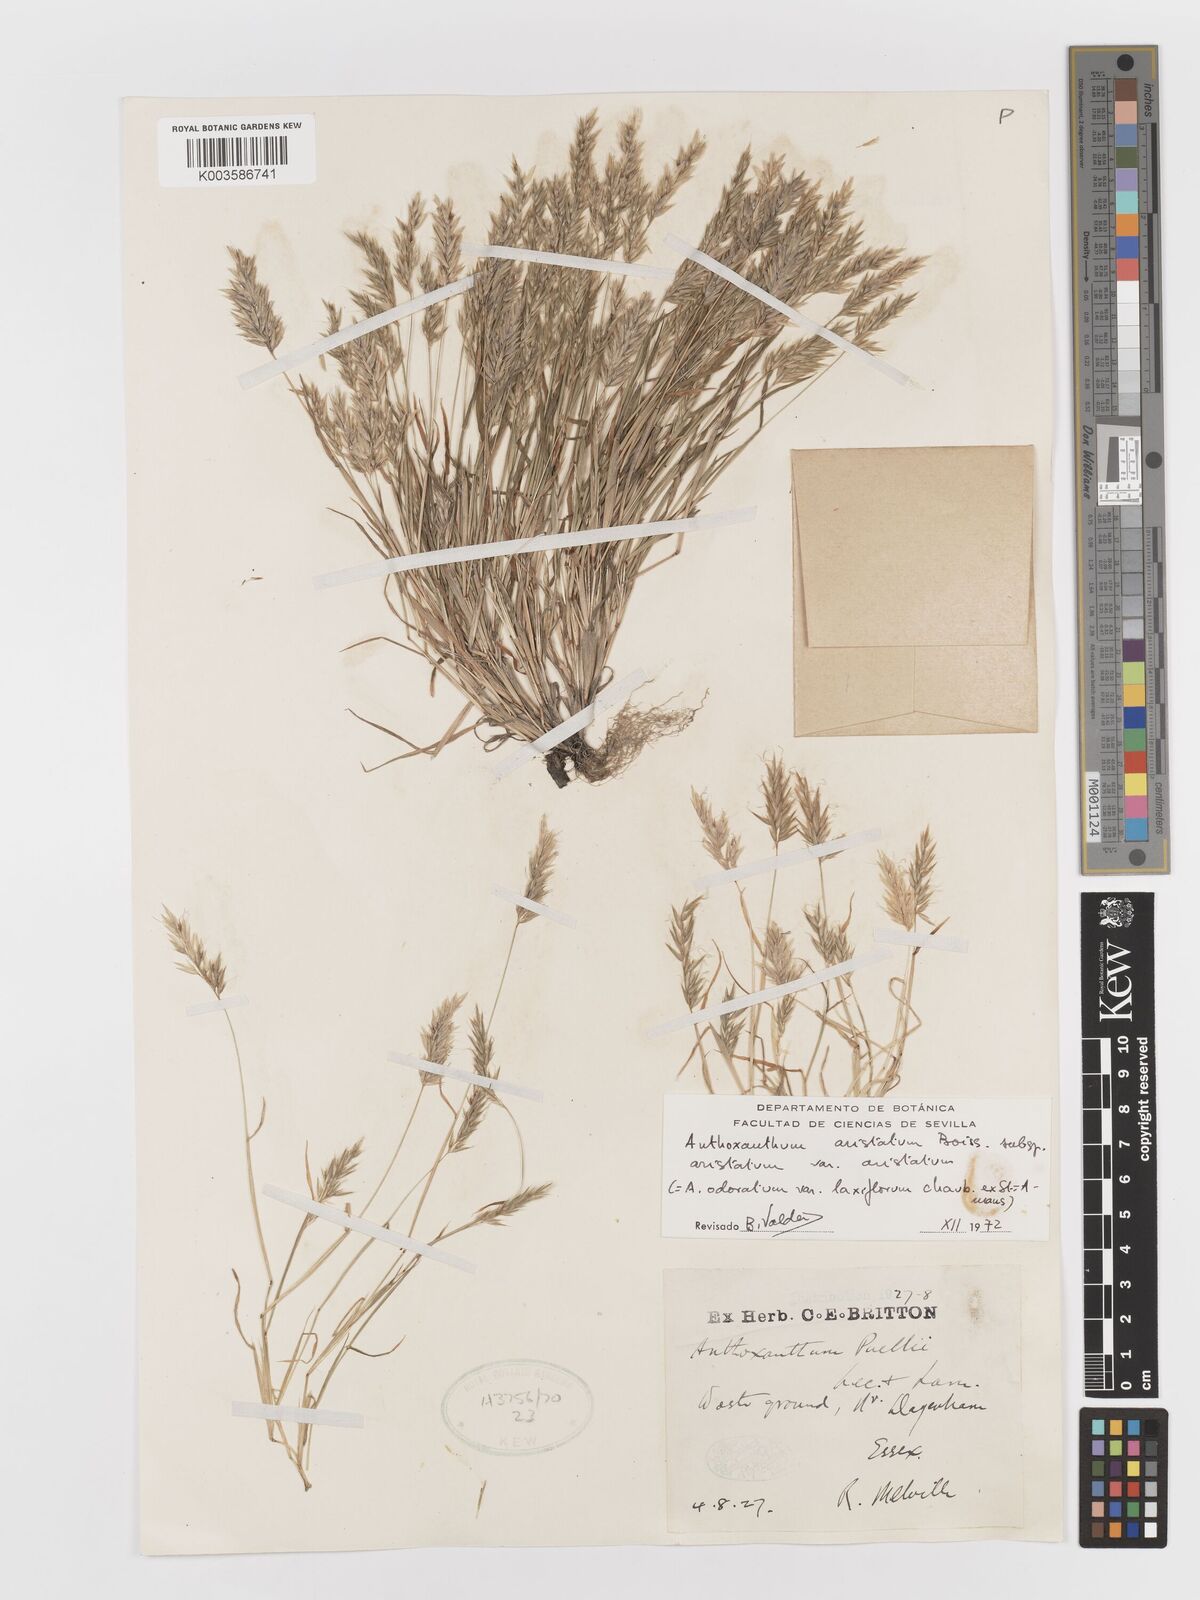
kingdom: Plantae
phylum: Tracheophyta
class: Liliopsida
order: Poales
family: Poaceae
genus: Anthoxanthum
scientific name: Anthoxanthum aristatum
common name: Annual vernal-grass
